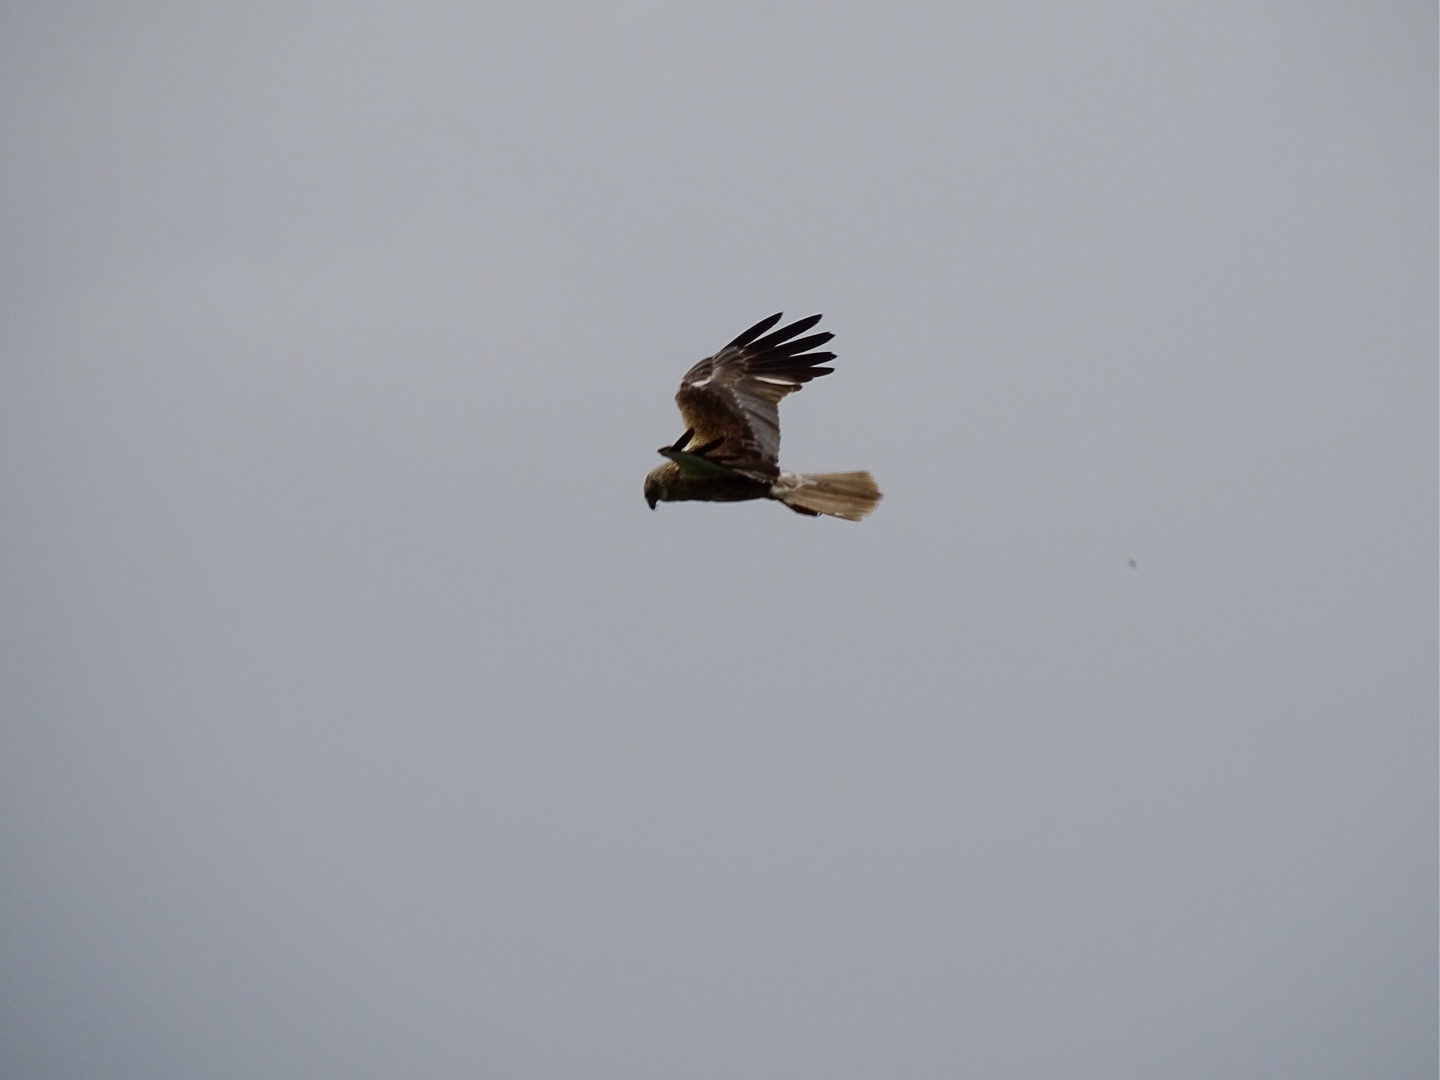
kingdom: Animalia
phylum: Chordata
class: Aves
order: Accipitriformes
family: Accipitridae
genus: Circus
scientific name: Circus aeruginosus
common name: Rørhøg
